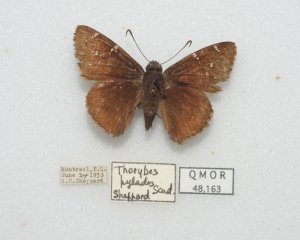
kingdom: Animalia
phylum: Arthropoda
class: Insecta
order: Lepidoptera
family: Hesperiidae
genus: Autochton
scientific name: Autochton
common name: Northern Cloudywing
